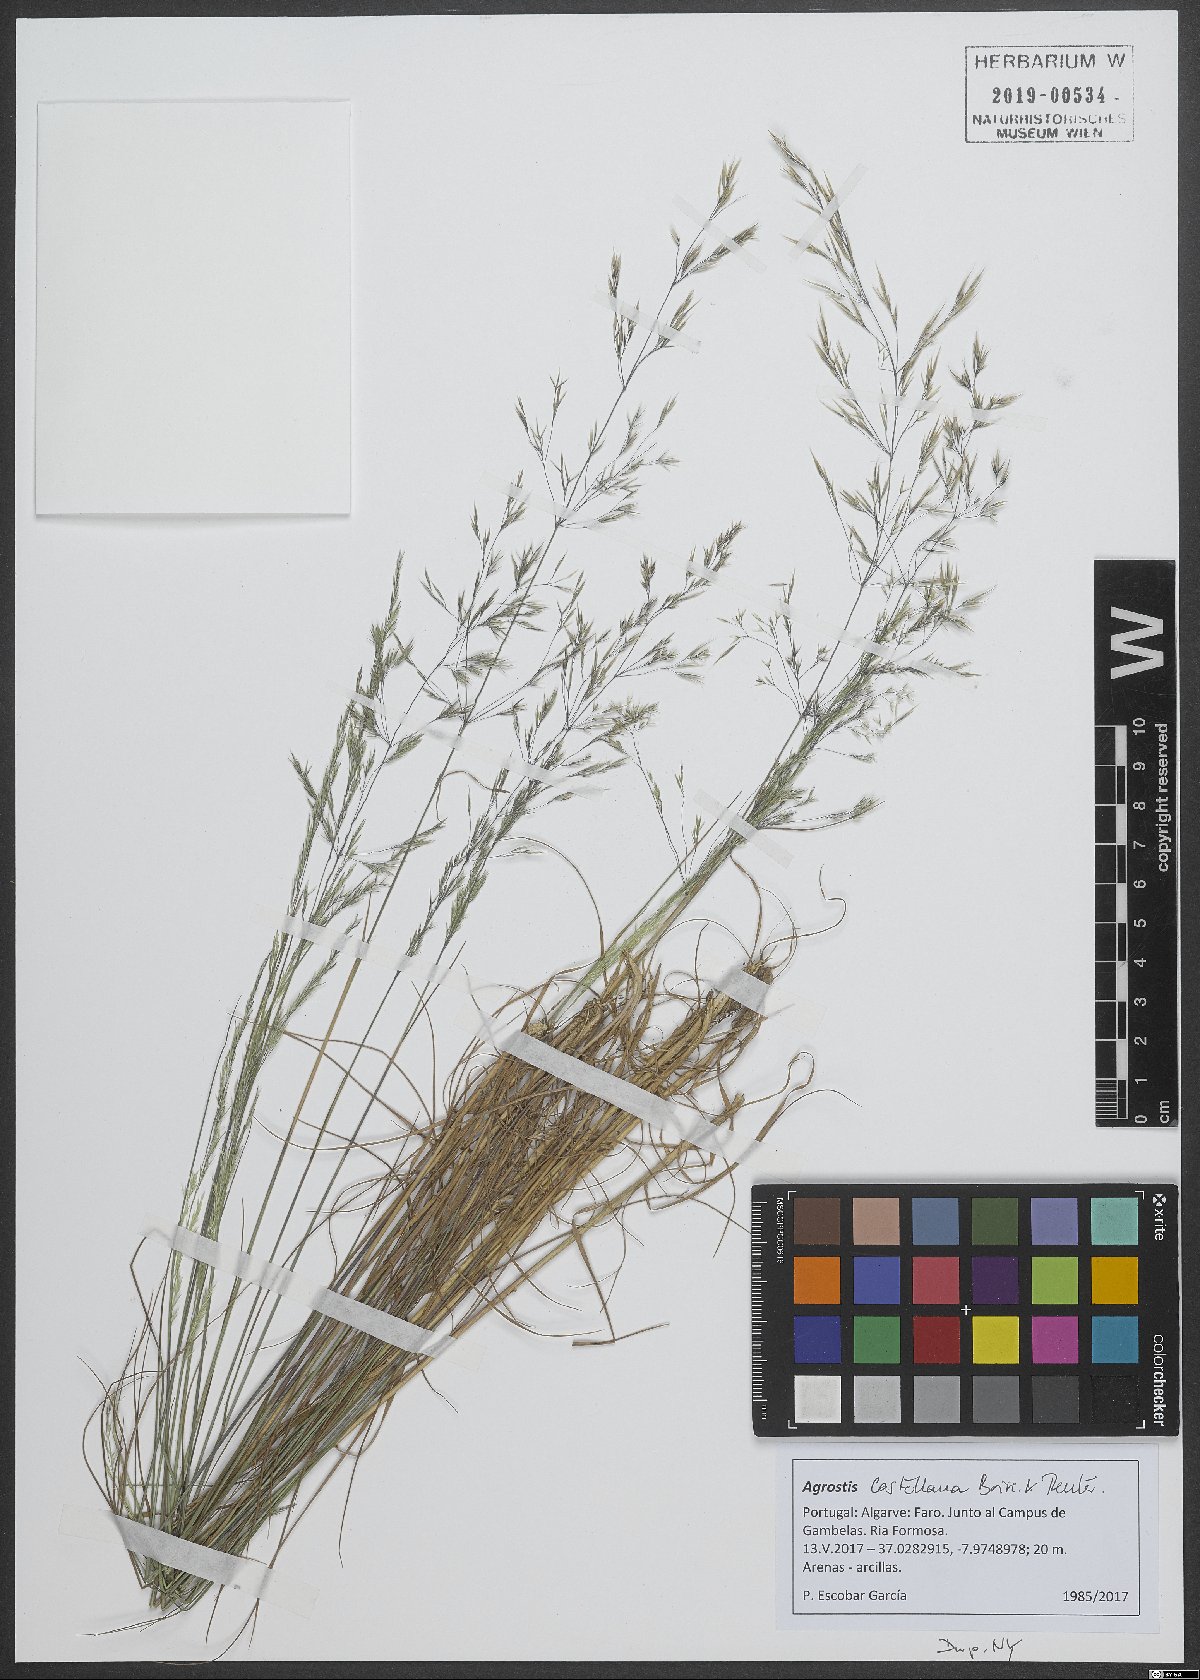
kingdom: Plantae
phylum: Tracheophyta
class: Liliopsida
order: Poales
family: Poaceae
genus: Agrostis
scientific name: Agrostis castellana
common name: Highland bent
